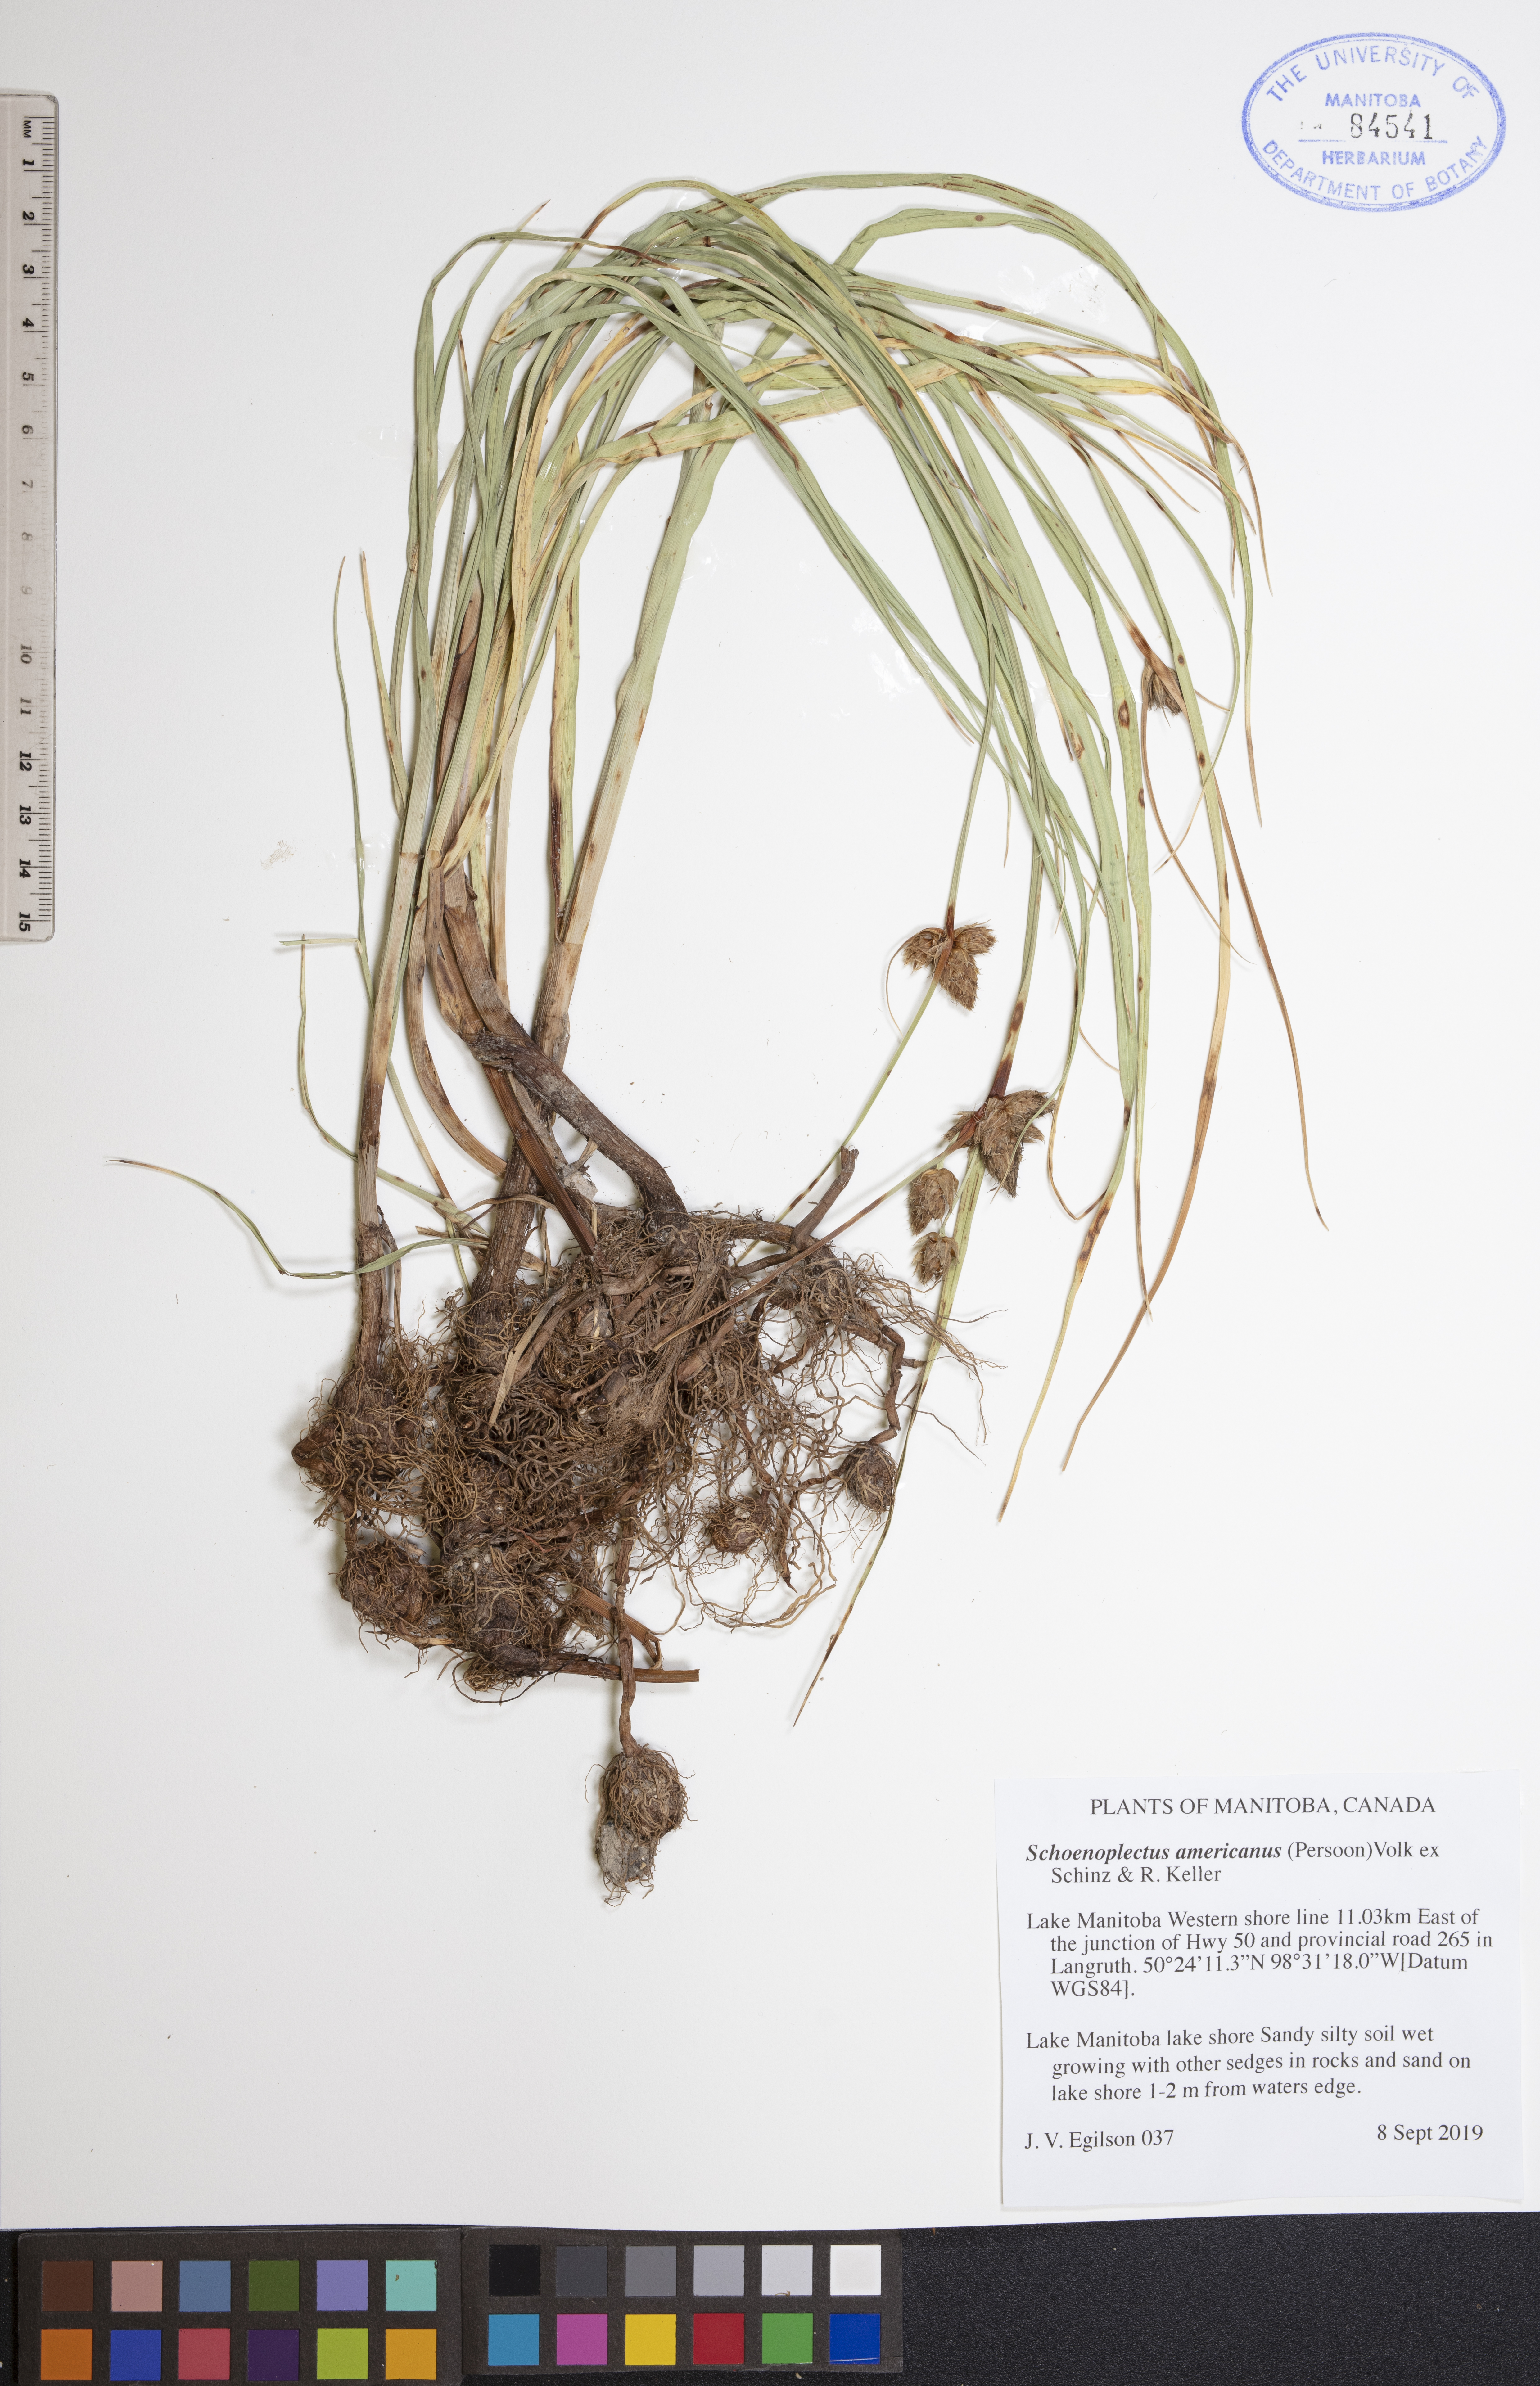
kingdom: Plantae
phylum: Tracheophyta
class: Liliopsida
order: Poales
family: Cyperaceae
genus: Schoenoplectus
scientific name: Schoenoplectus americanus
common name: American three-square bulrush
